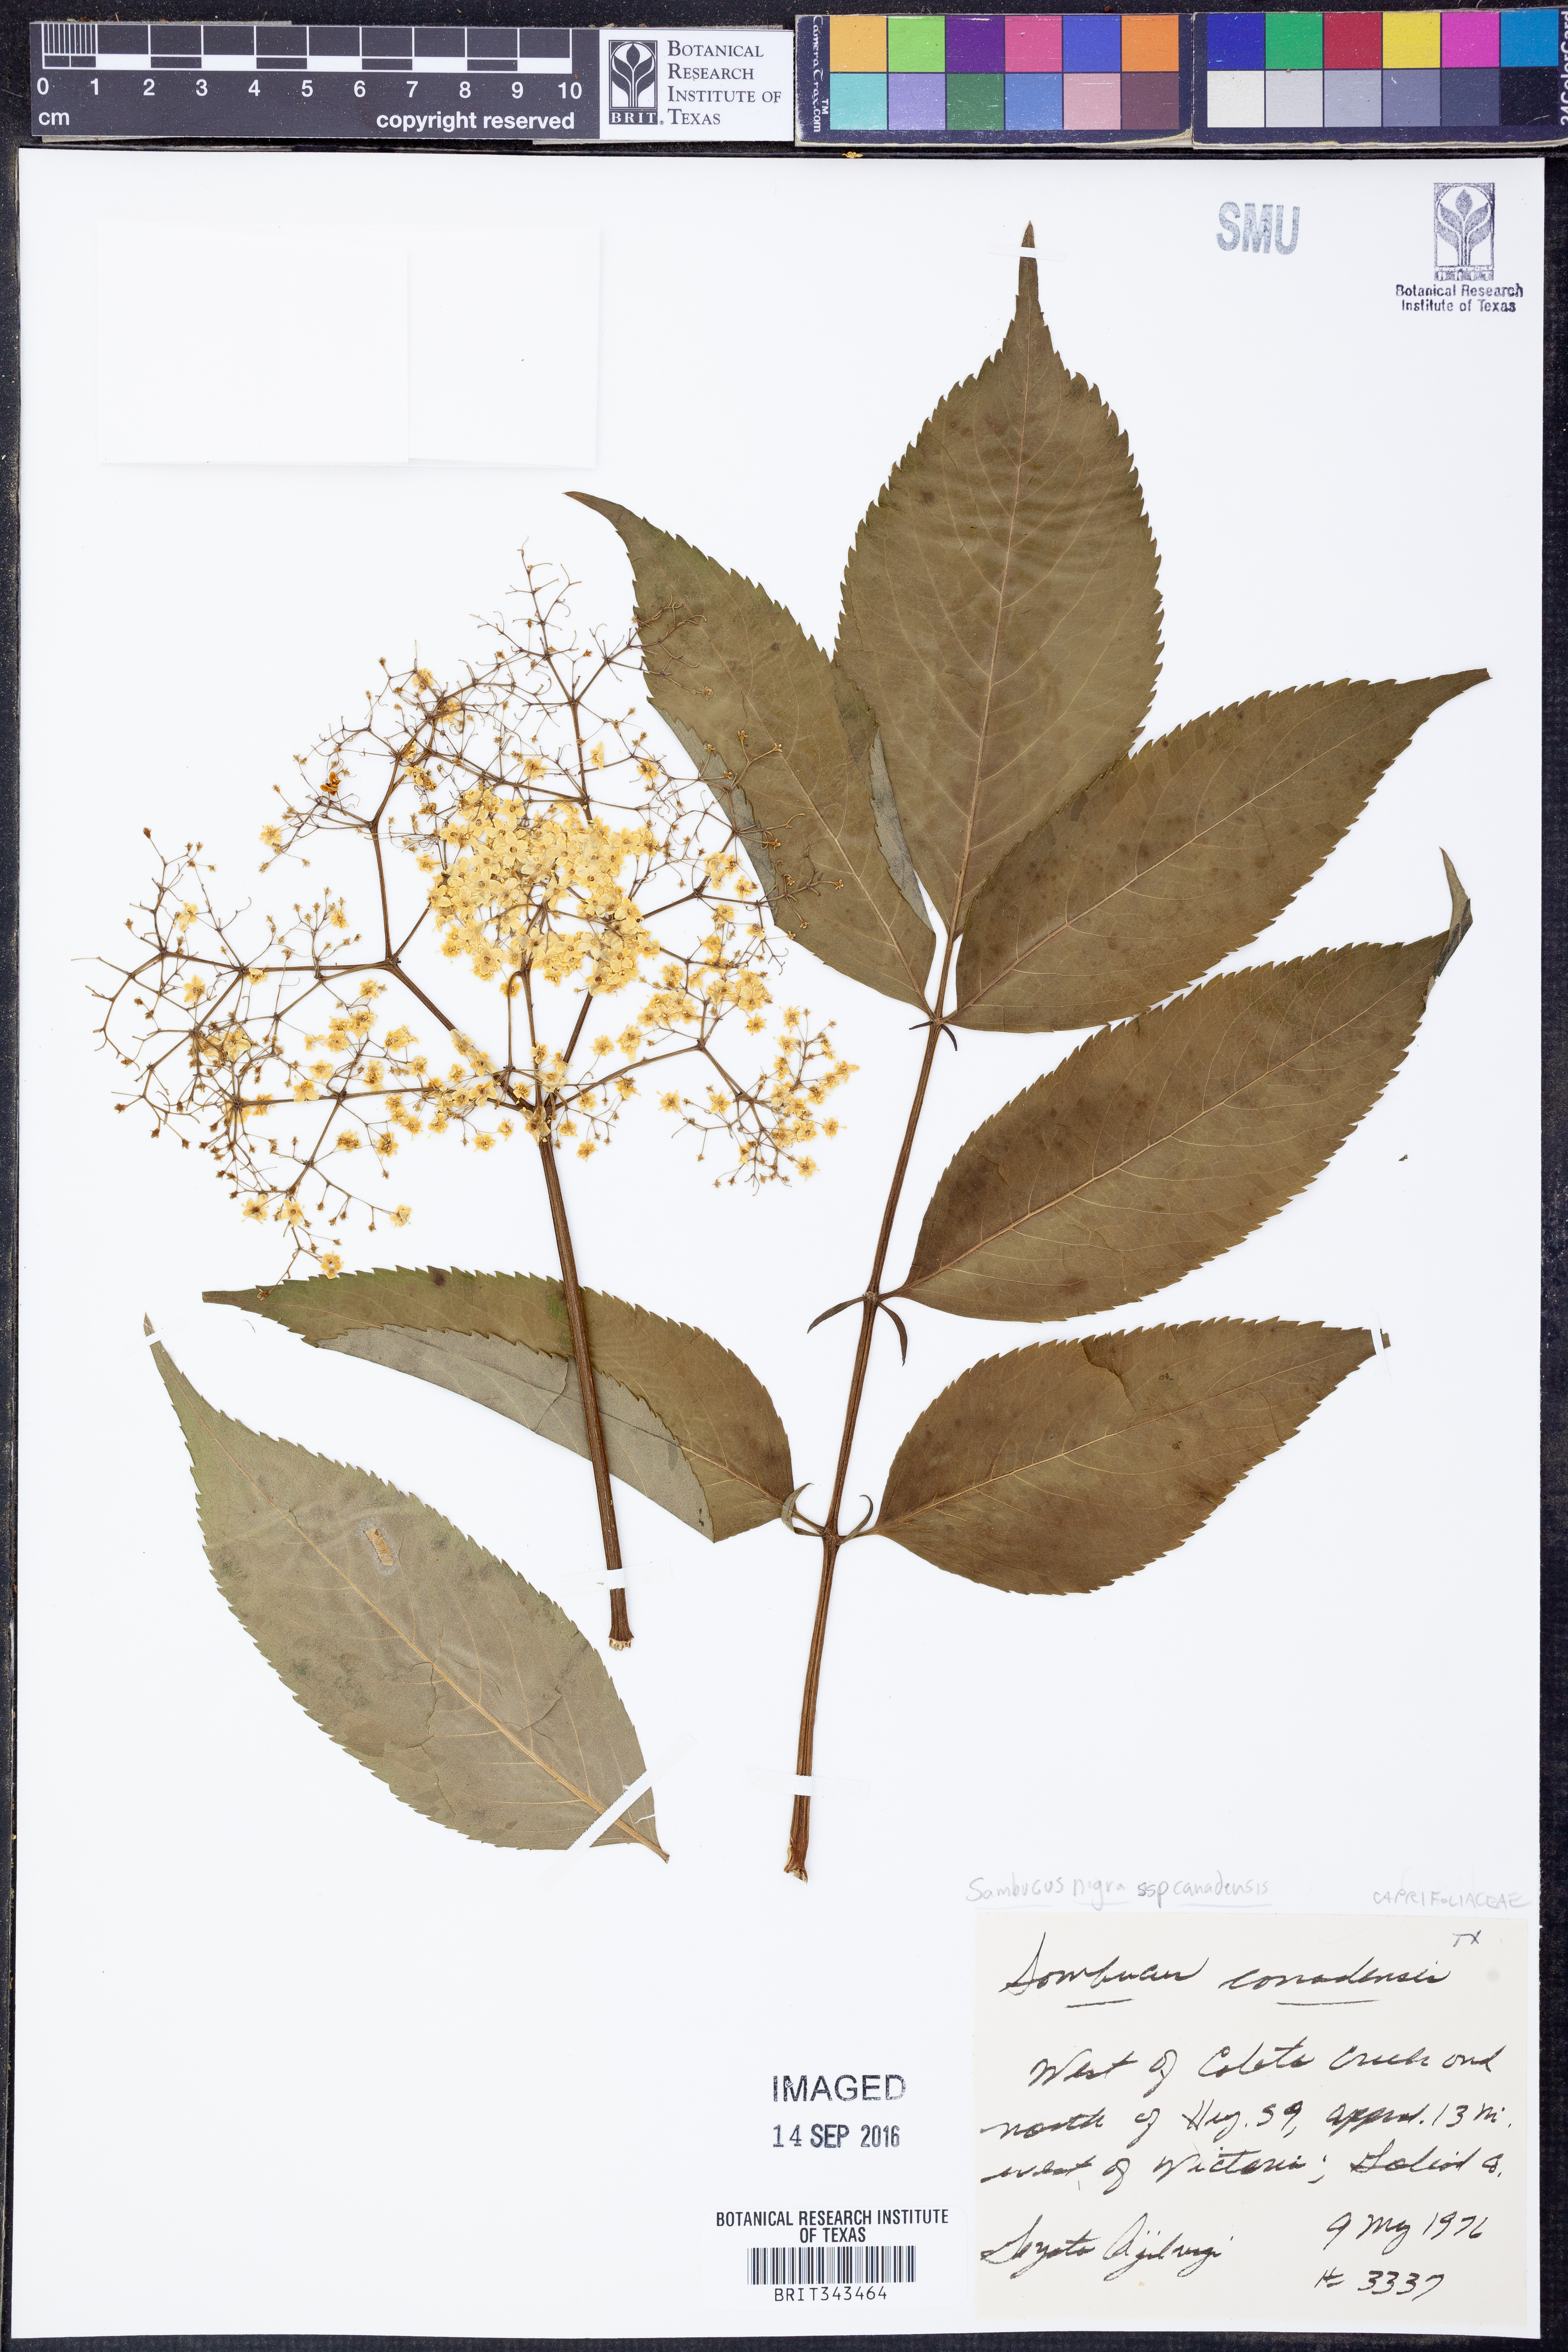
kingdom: Plantae
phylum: Tracheophyta
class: Magnoliopsida
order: Dipsacales
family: Viburnaceae
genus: Sambucus
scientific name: Sambucus canadensis
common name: American elder
